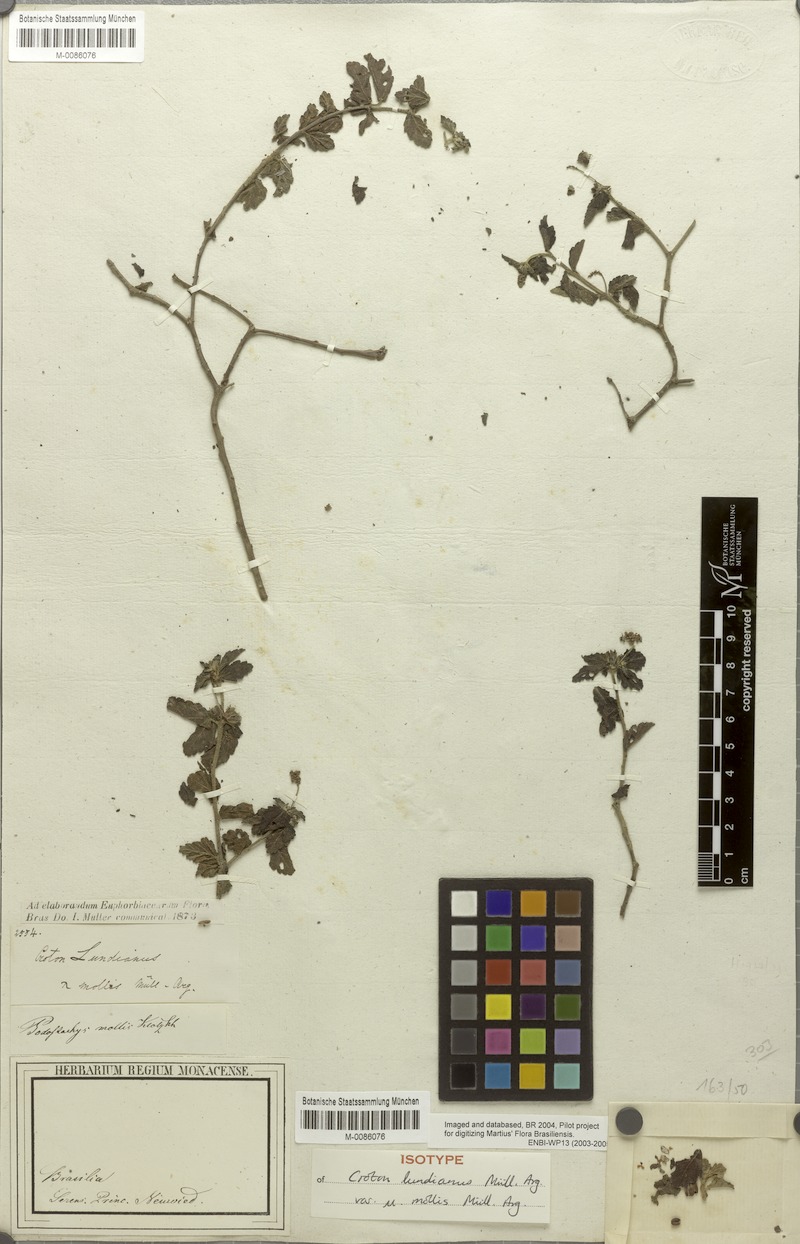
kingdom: Plantae
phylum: Tracheophyta
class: Magnoliopsida
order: Malpighiales
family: Euphorbiaceae
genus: Croton
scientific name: Croton lundianus
